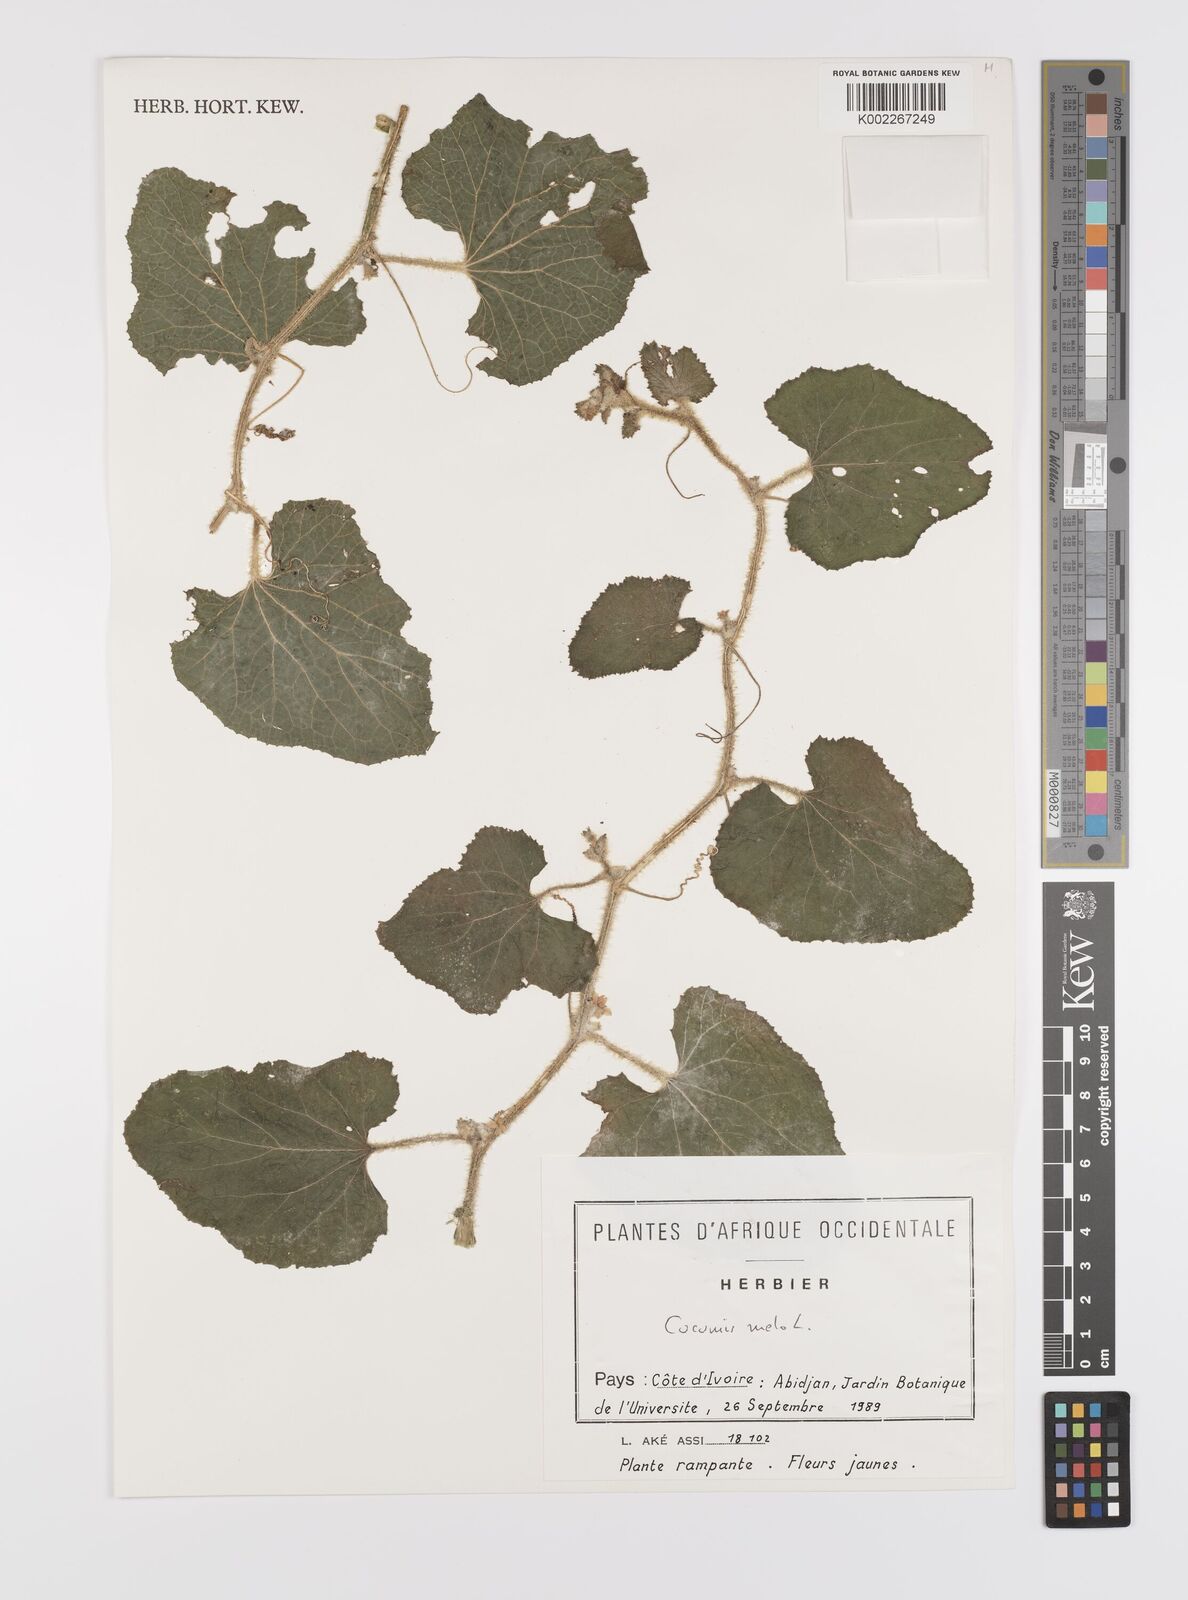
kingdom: Plantae
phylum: Tracheophyta
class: Magnoliopsida
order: Cucurbitales
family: Cucurbitaceae
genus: Cucumis
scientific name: Cucumis melo
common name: Melon
